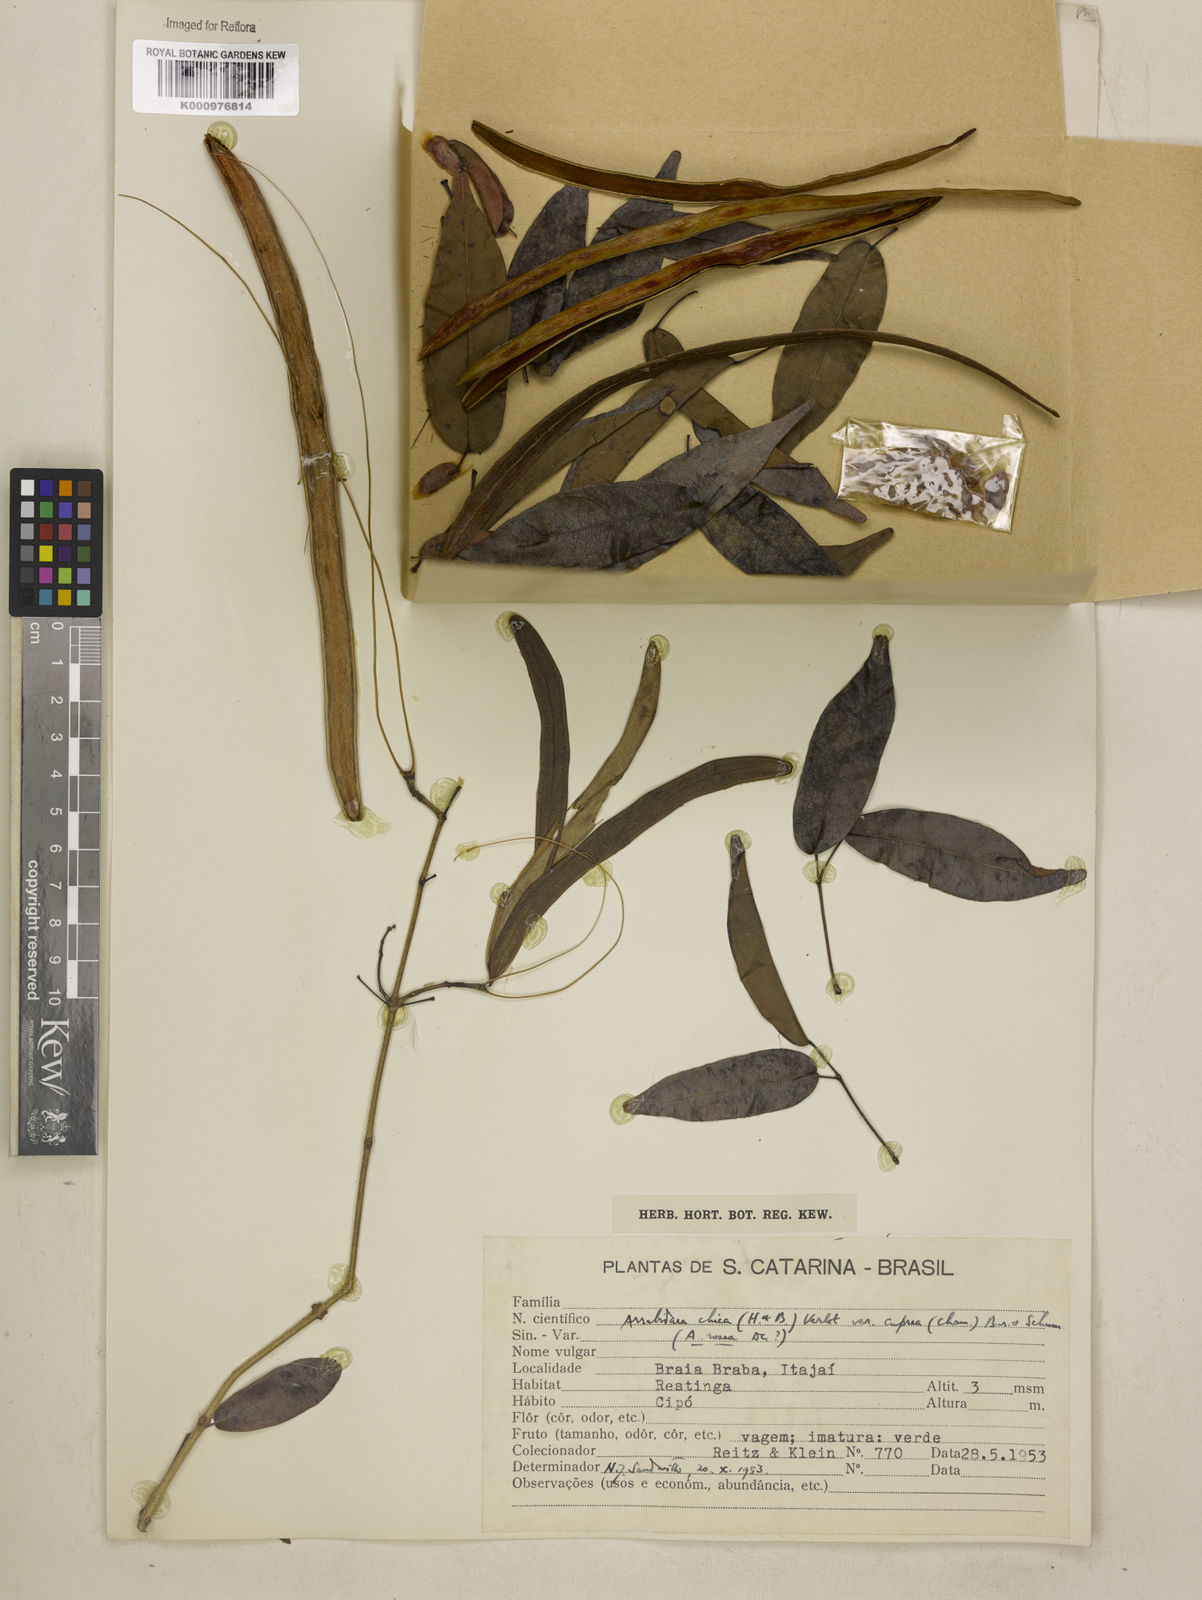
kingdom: Plantae
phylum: Tracheophyta
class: Magnoliopsida
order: Lamiales
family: Bignoniaceae
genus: Fridericia
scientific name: Fridericia chica
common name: Cricketvine
